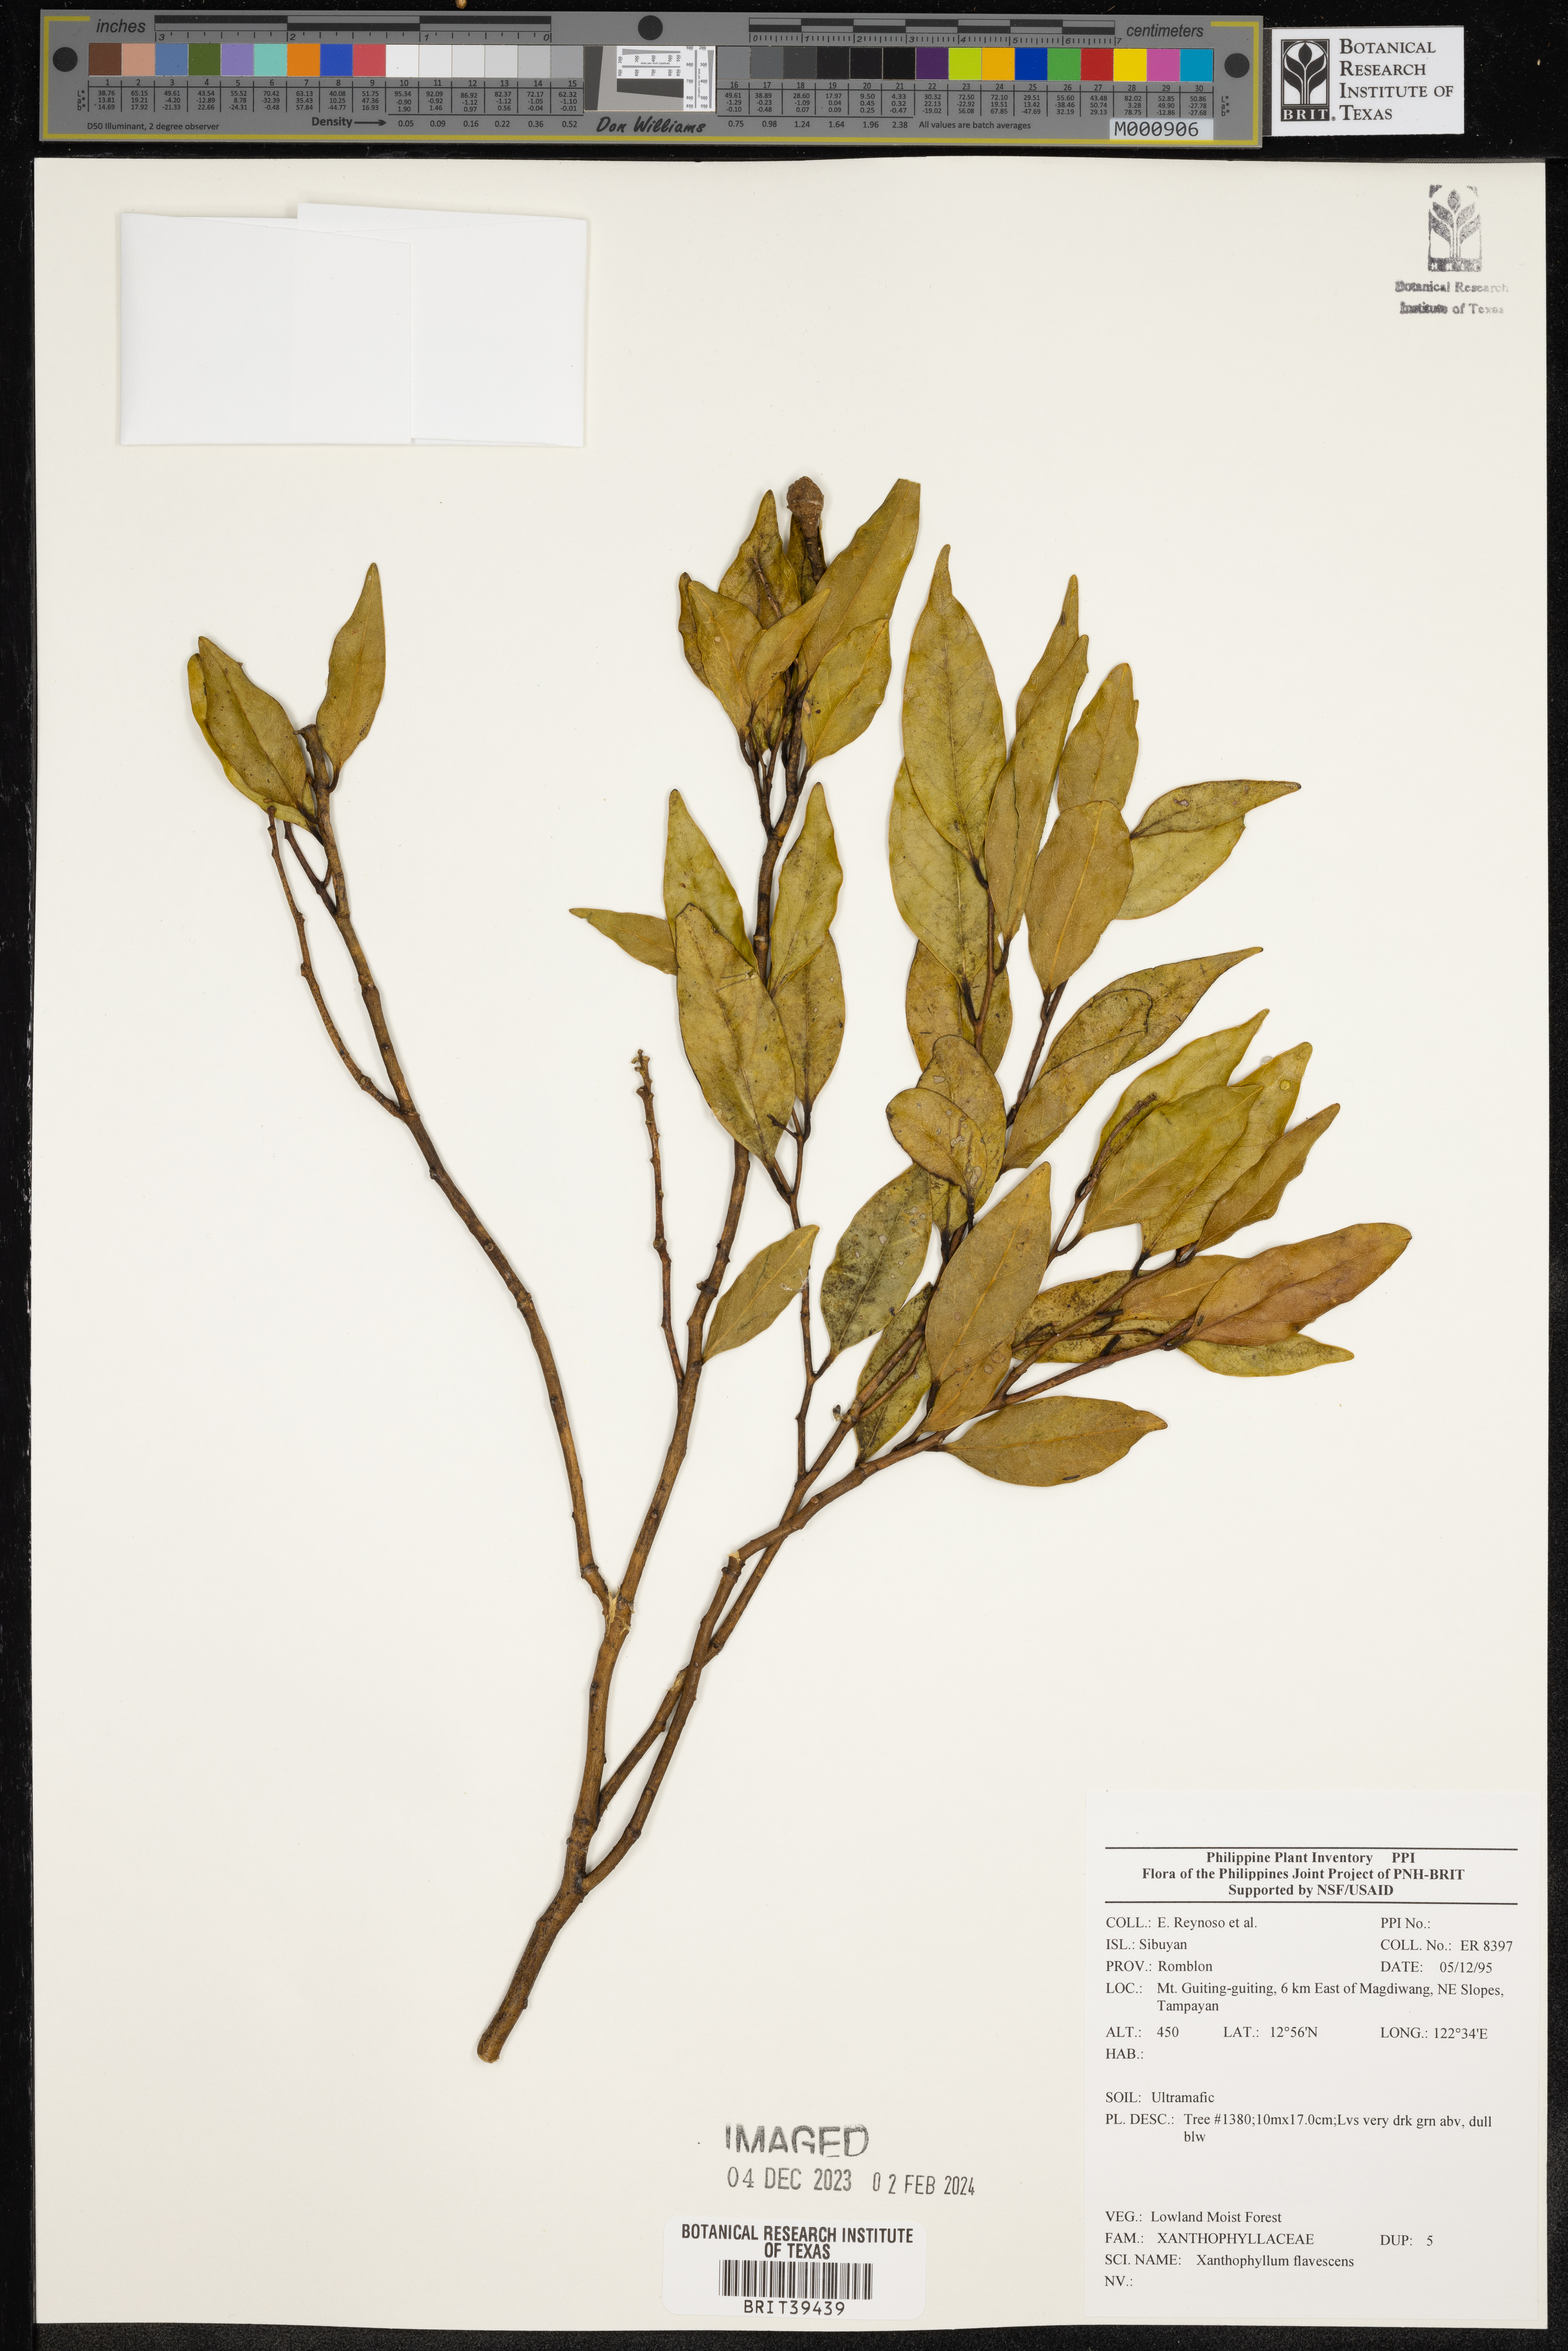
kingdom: Plantae
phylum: Tracheophyta
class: Magnoliopsida
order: Fabales
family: Polygalaceae
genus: Xanthophyllum
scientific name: Xanthophyllum flavescens
